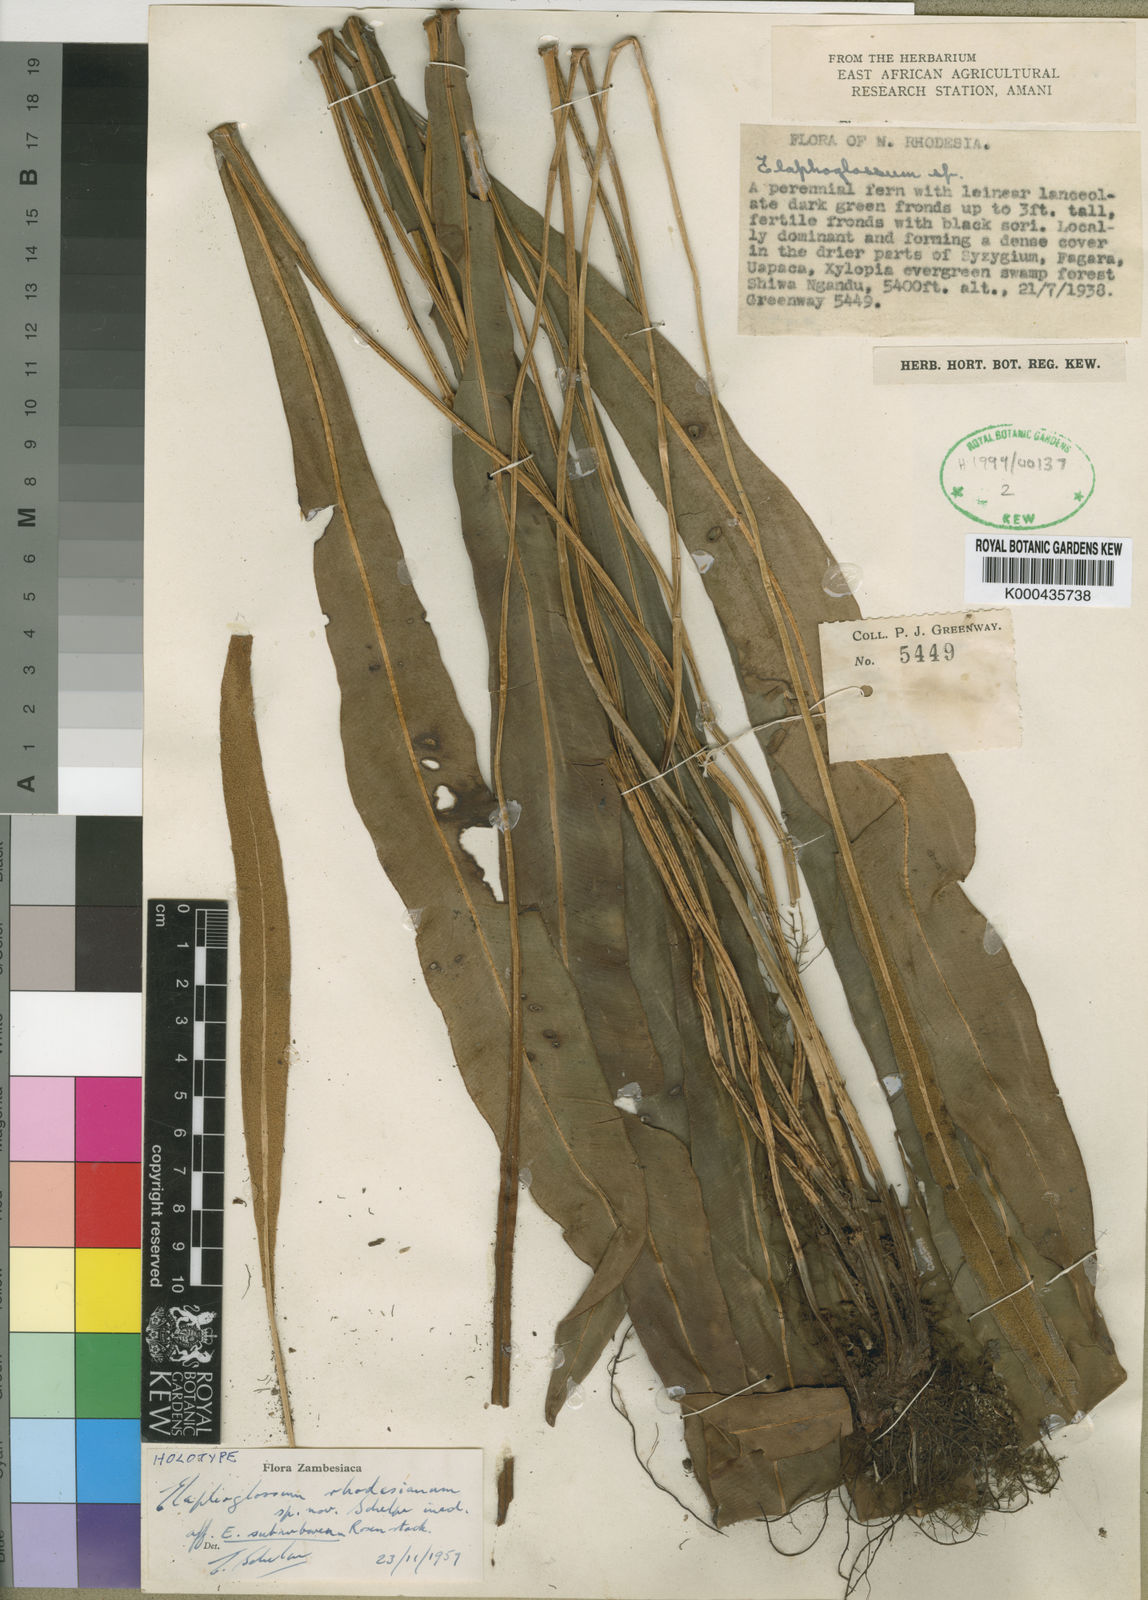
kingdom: Plantae
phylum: Tracheophyta
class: Polypodiopsida
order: Polypodiales
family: Dryopteridaceae
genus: Elaphoglossum
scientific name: Elaphoglossum rhodesianum
